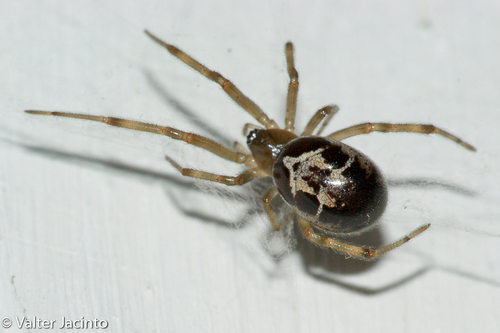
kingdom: Animalia
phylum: Arthropoda
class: Arachnida
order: Araneae
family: Theridiidae
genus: Steatoda
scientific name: Steatoda nobilis
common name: Cobweb weaver
